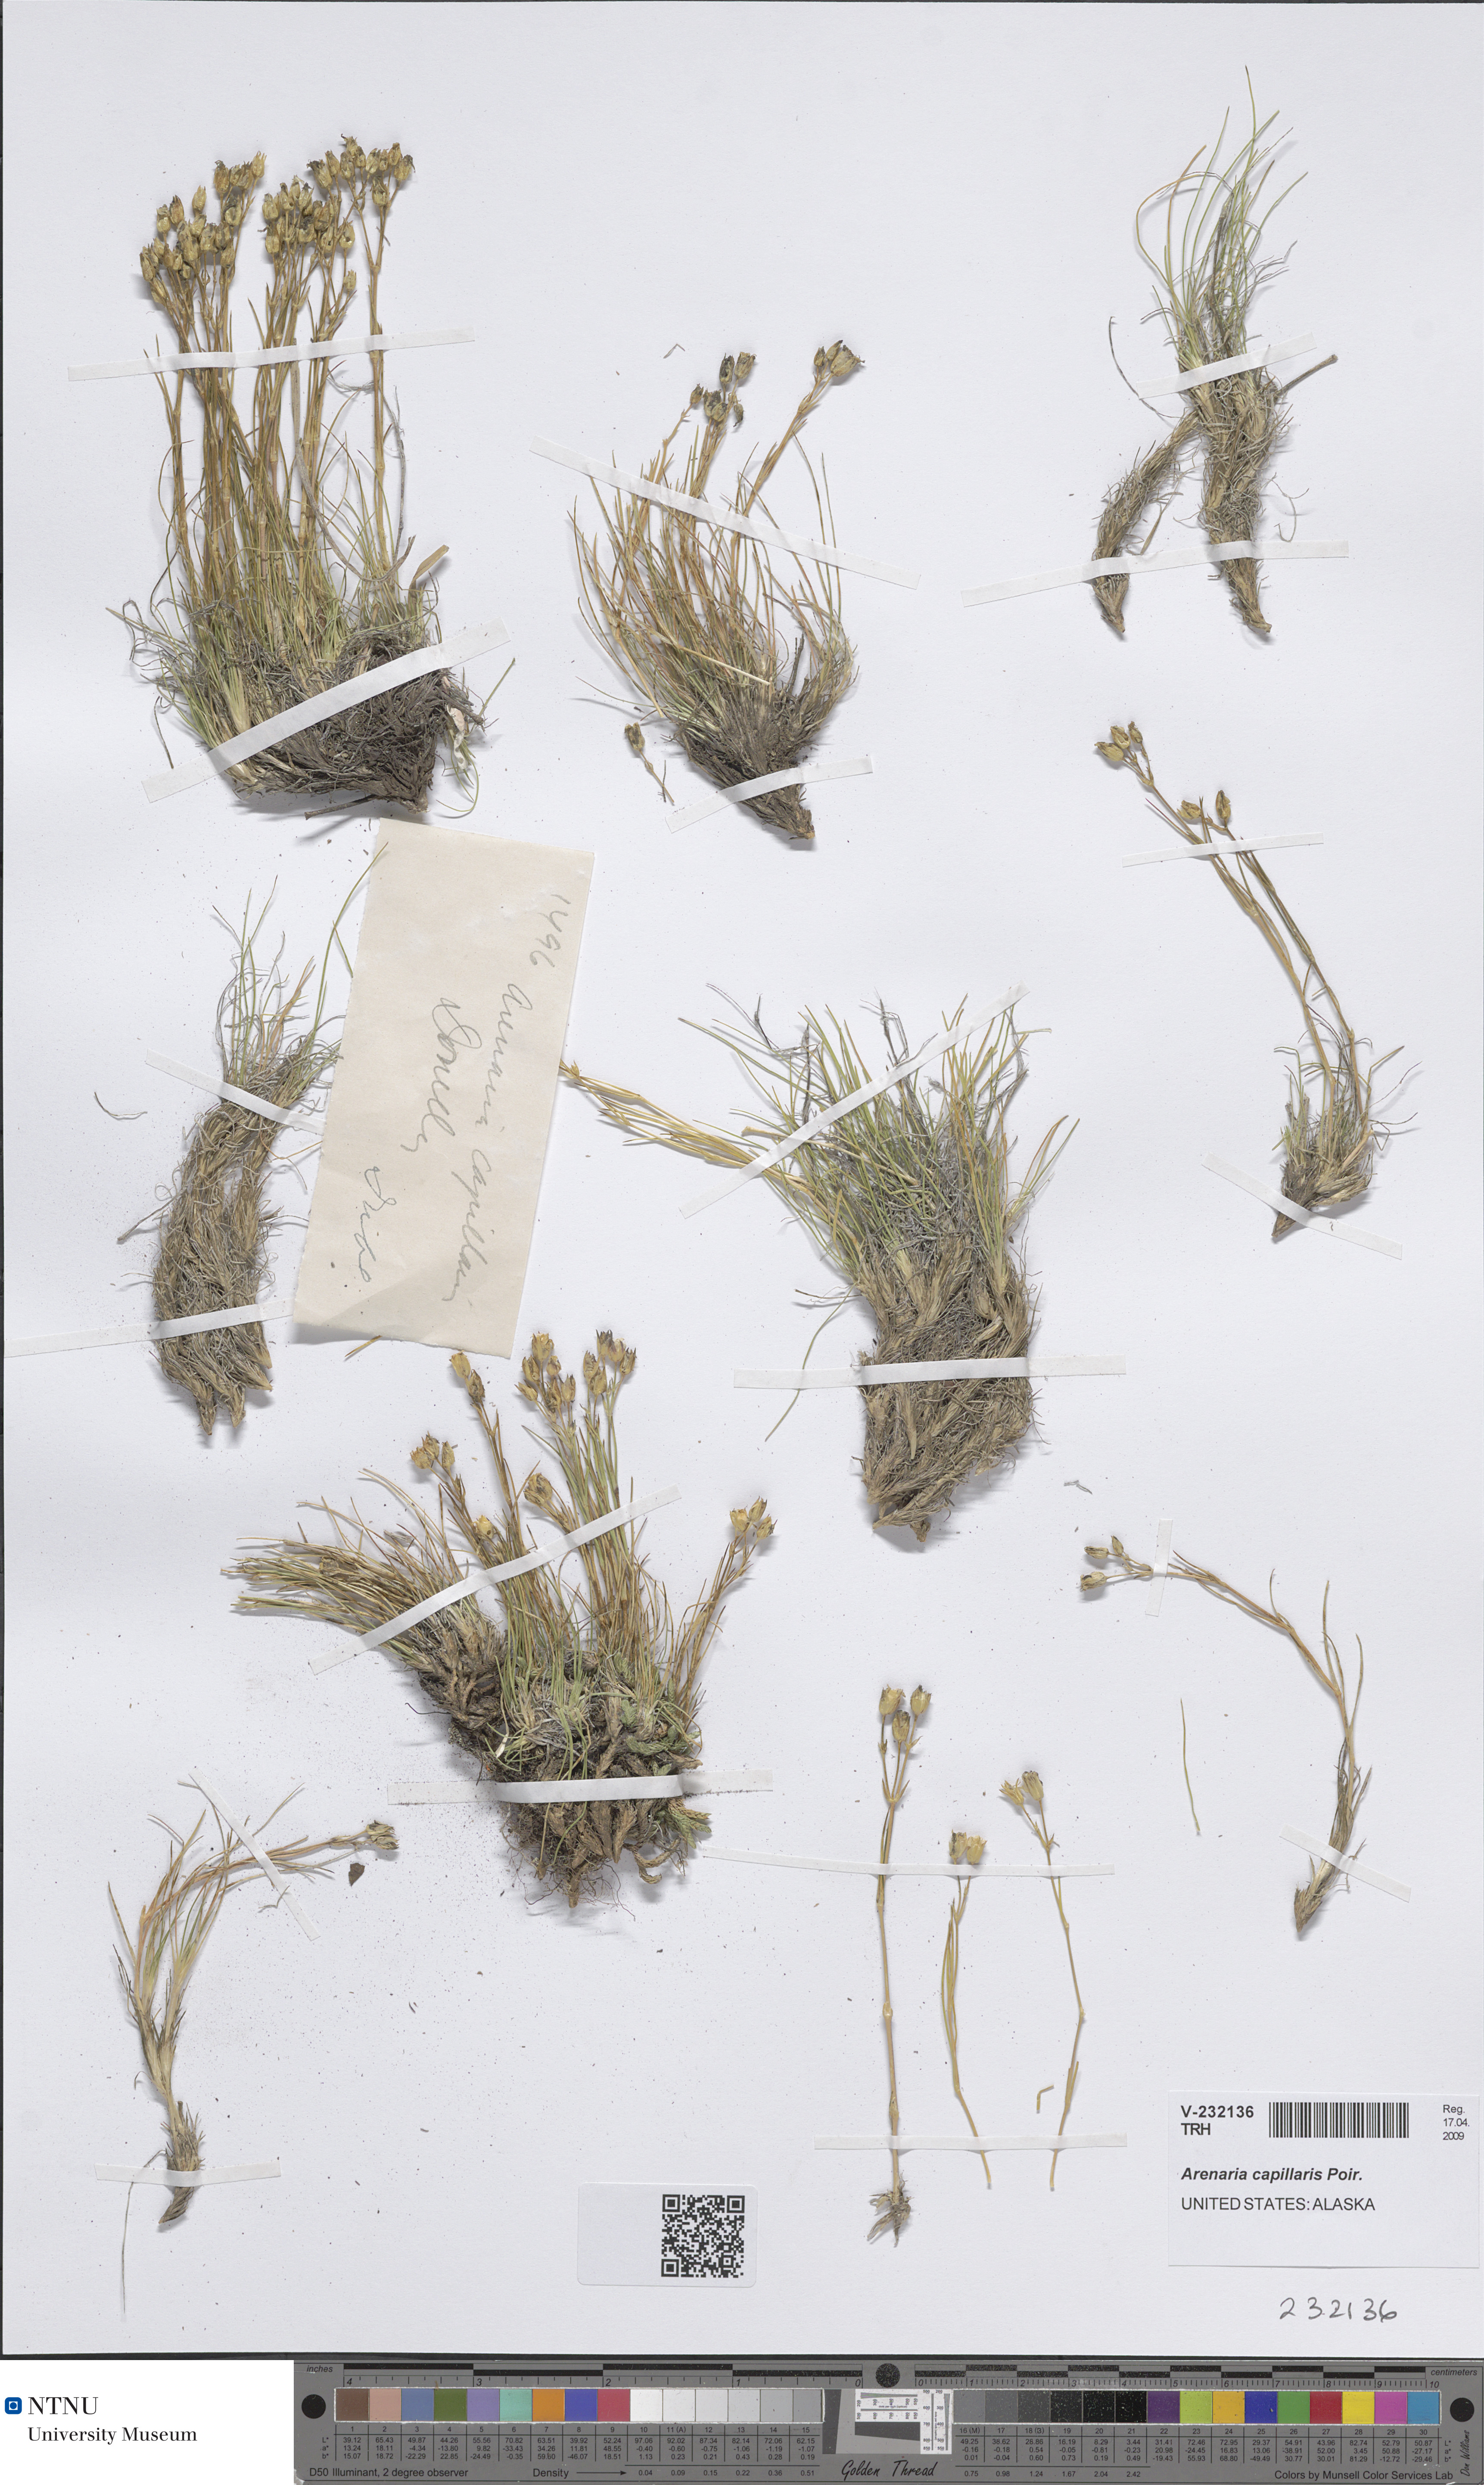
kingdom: Plantae
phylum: Tracheophyta
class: Magnoliopsida
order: Caryophyllales
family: Caryophyllaceae
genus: Eremogone
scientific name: Eremogone capillaris
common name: Slender mountain sandwort
